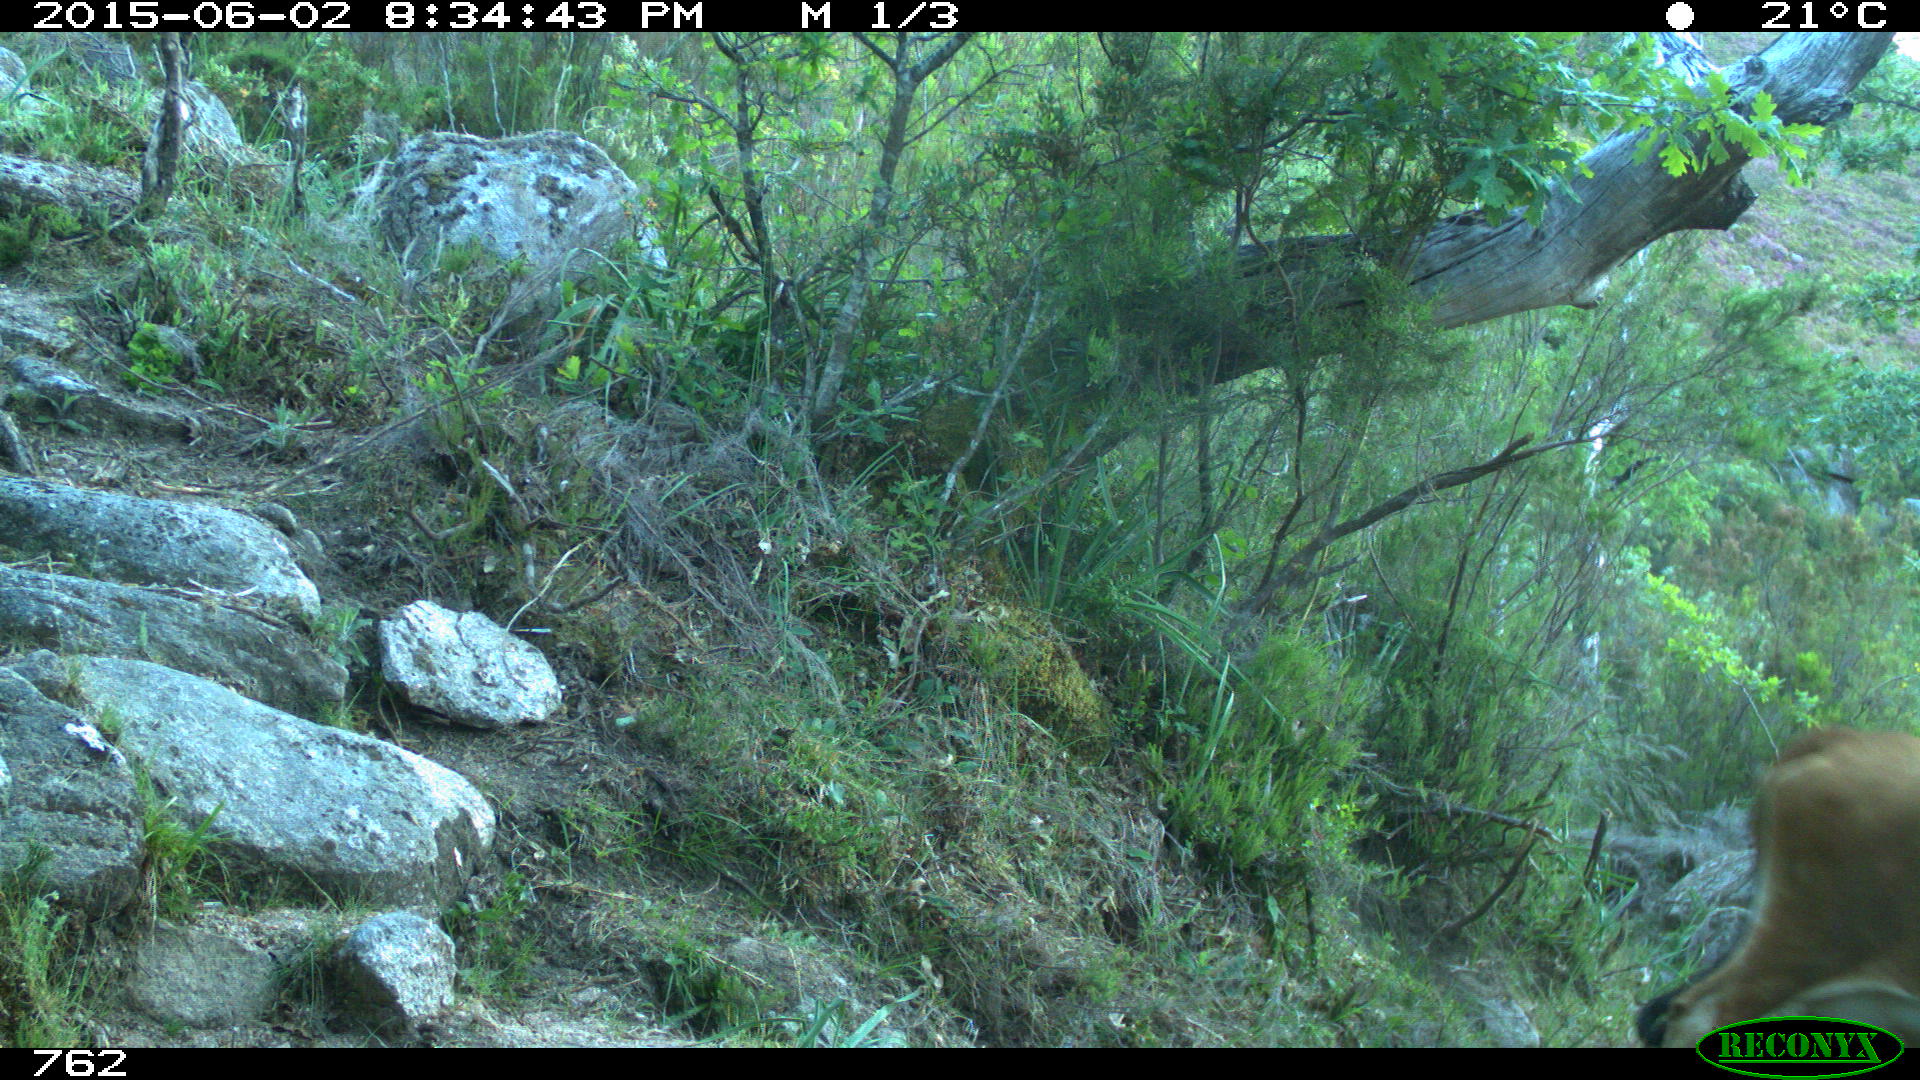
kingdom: Animalia
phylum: Chordata
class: Mammalia
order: Artiodactyla
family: Bovidae
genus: Bos
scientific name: Bos taurus
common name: Domesticated cattle
